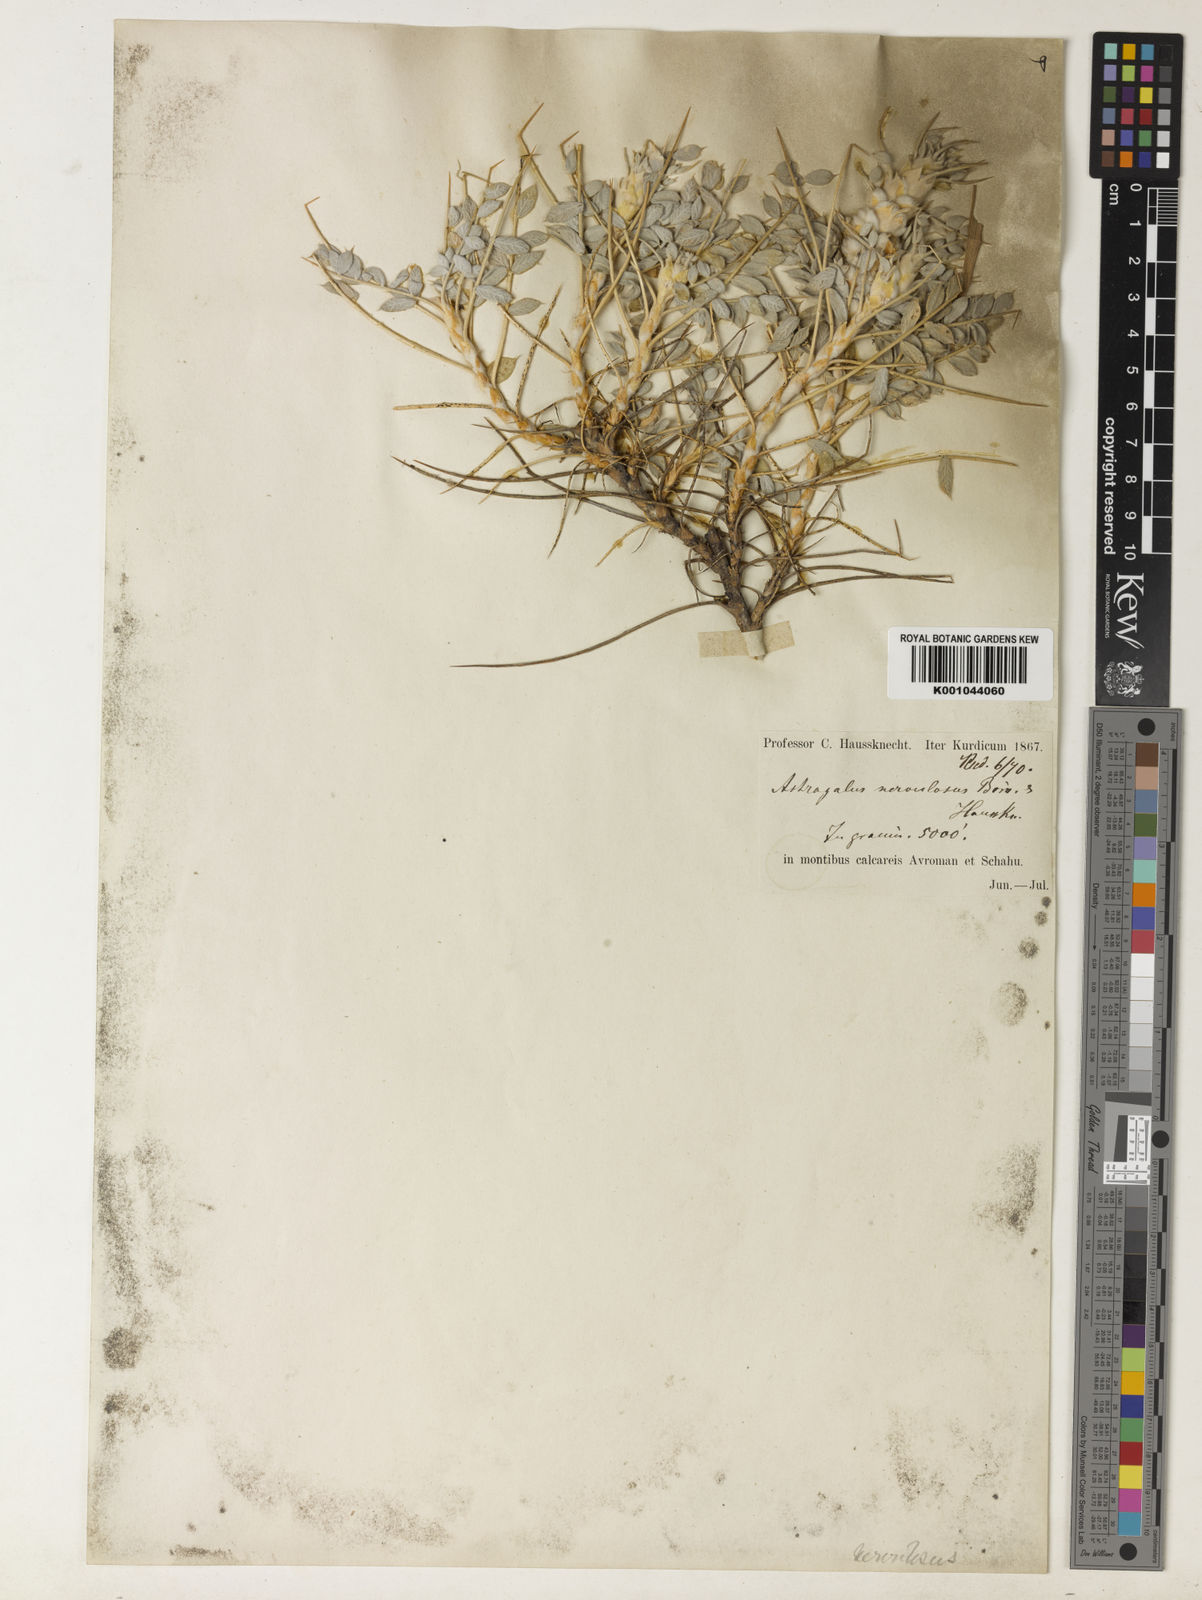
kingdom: Plantae
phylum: Tracheophyta
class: Magnoliopsida
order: Fabales
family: Fabaceae
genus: Astragalus
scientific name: Astragalus
